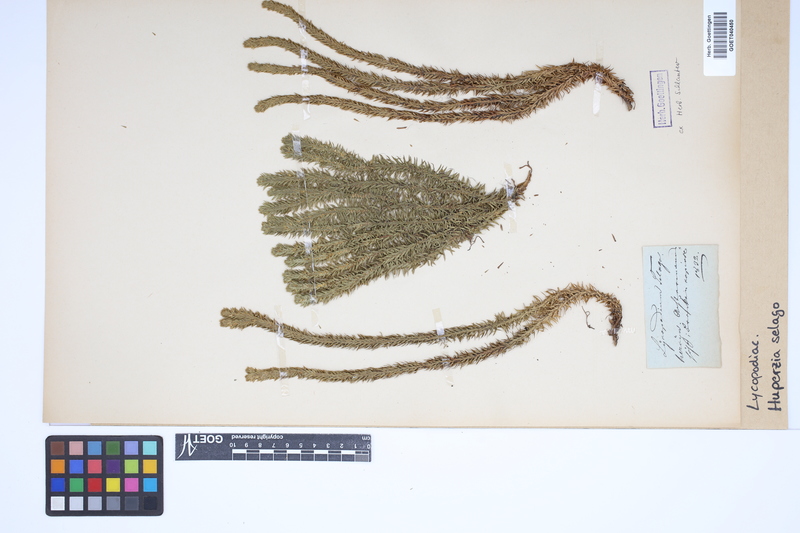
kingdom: Plantae
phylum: Tracheophyta
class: Lycopodiopsida
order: Lycopodiales
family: Lycopodiaceae
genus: Huperzia
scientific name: Huperzia selago
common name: Northern firmoss
